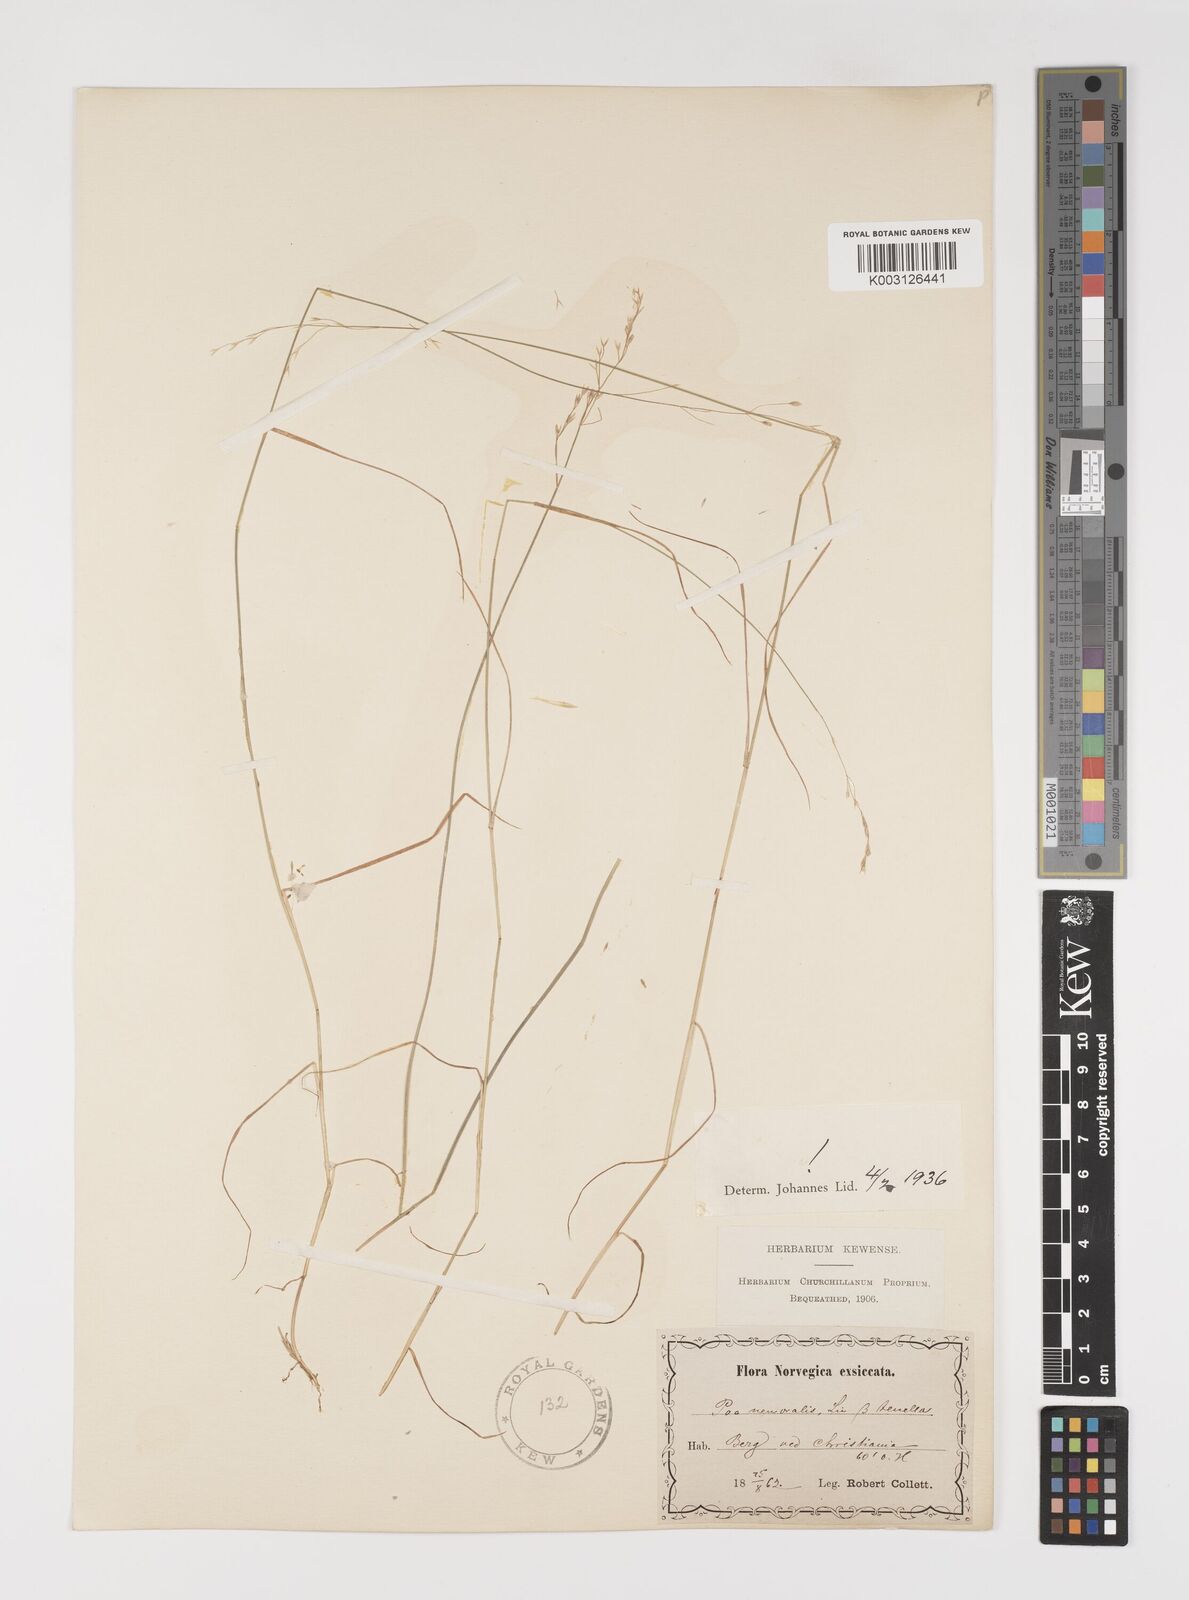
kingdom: Plantae
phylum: Tracheophyta
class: Liliopsida
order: Poales
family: Poaceae
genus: Poa
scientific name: Poa nemoralis
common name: Wood bluegrass
